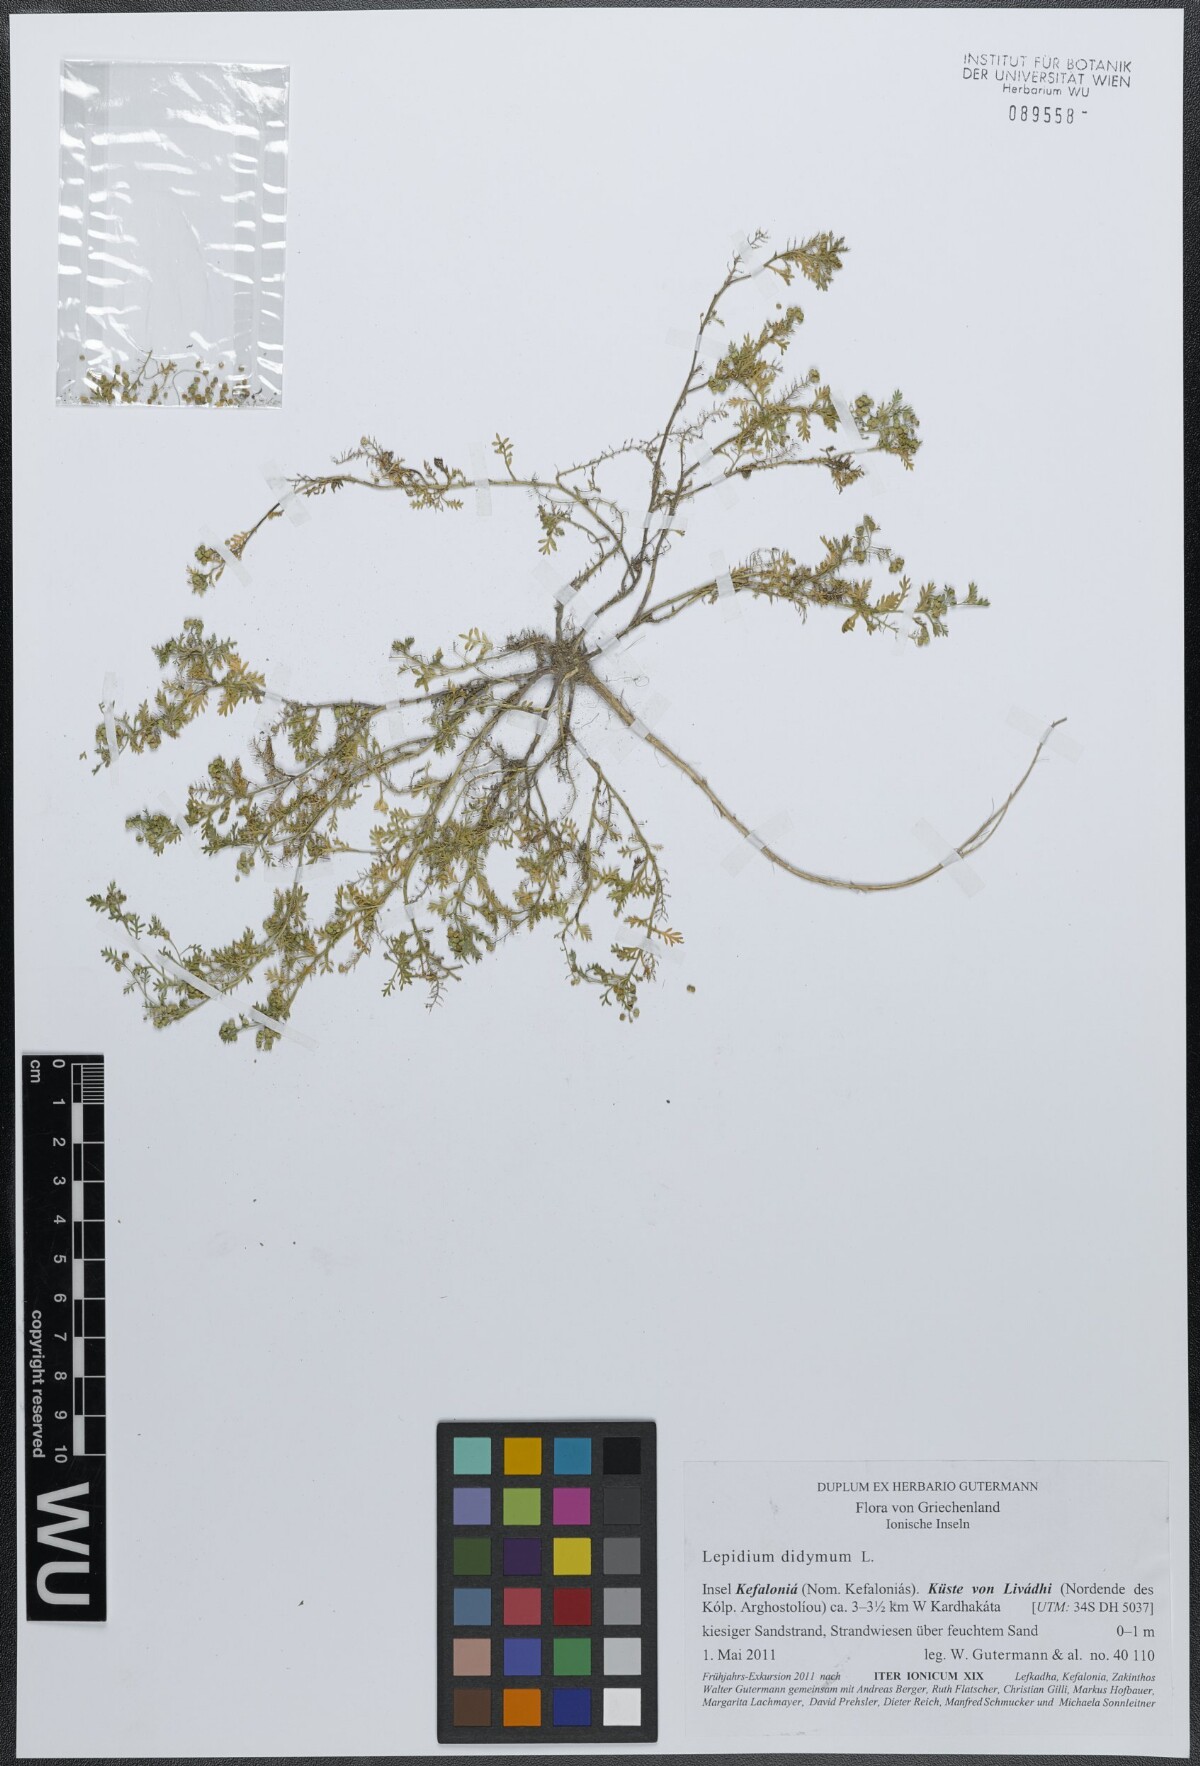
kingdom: Plantae
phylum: Tracheophyta
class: Magnoliopsida
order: Brassicales
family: Brassicaceae
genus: Lepidium
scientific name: Lepidium didymum
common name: Lesser swinecress
